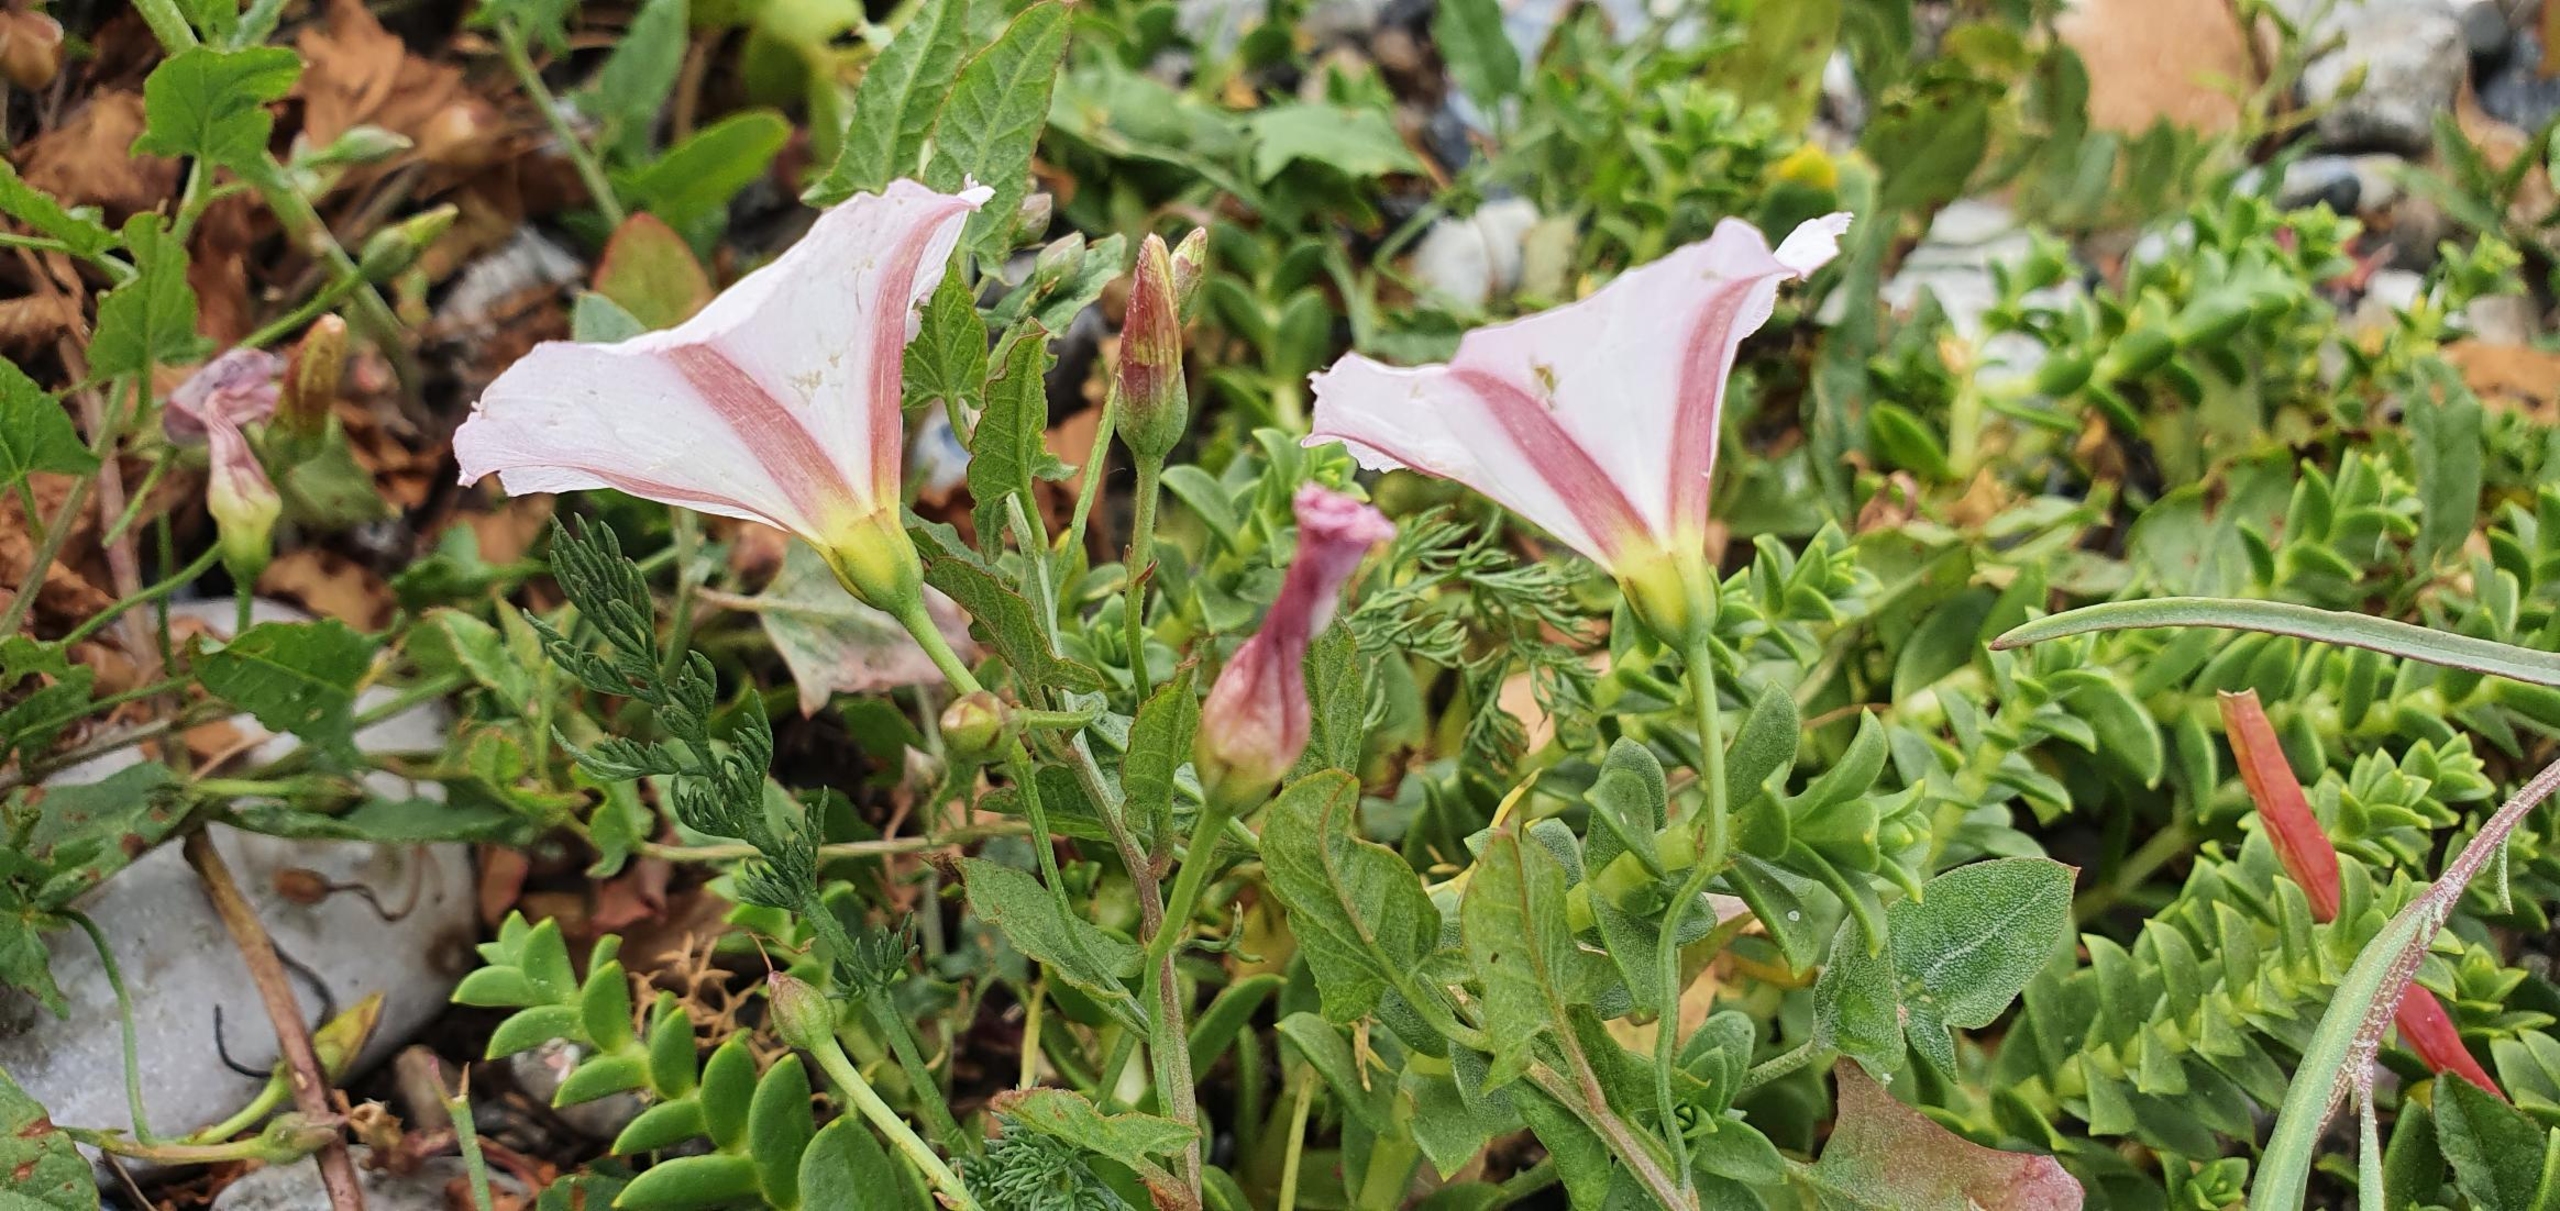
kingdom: Plantae
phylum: Tracheophyta
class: Magnoliopsida
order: Solanales
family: Convolvulaceae
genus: Convolvulus
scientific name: Convolvulus arvensis
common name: Ager-snerle
